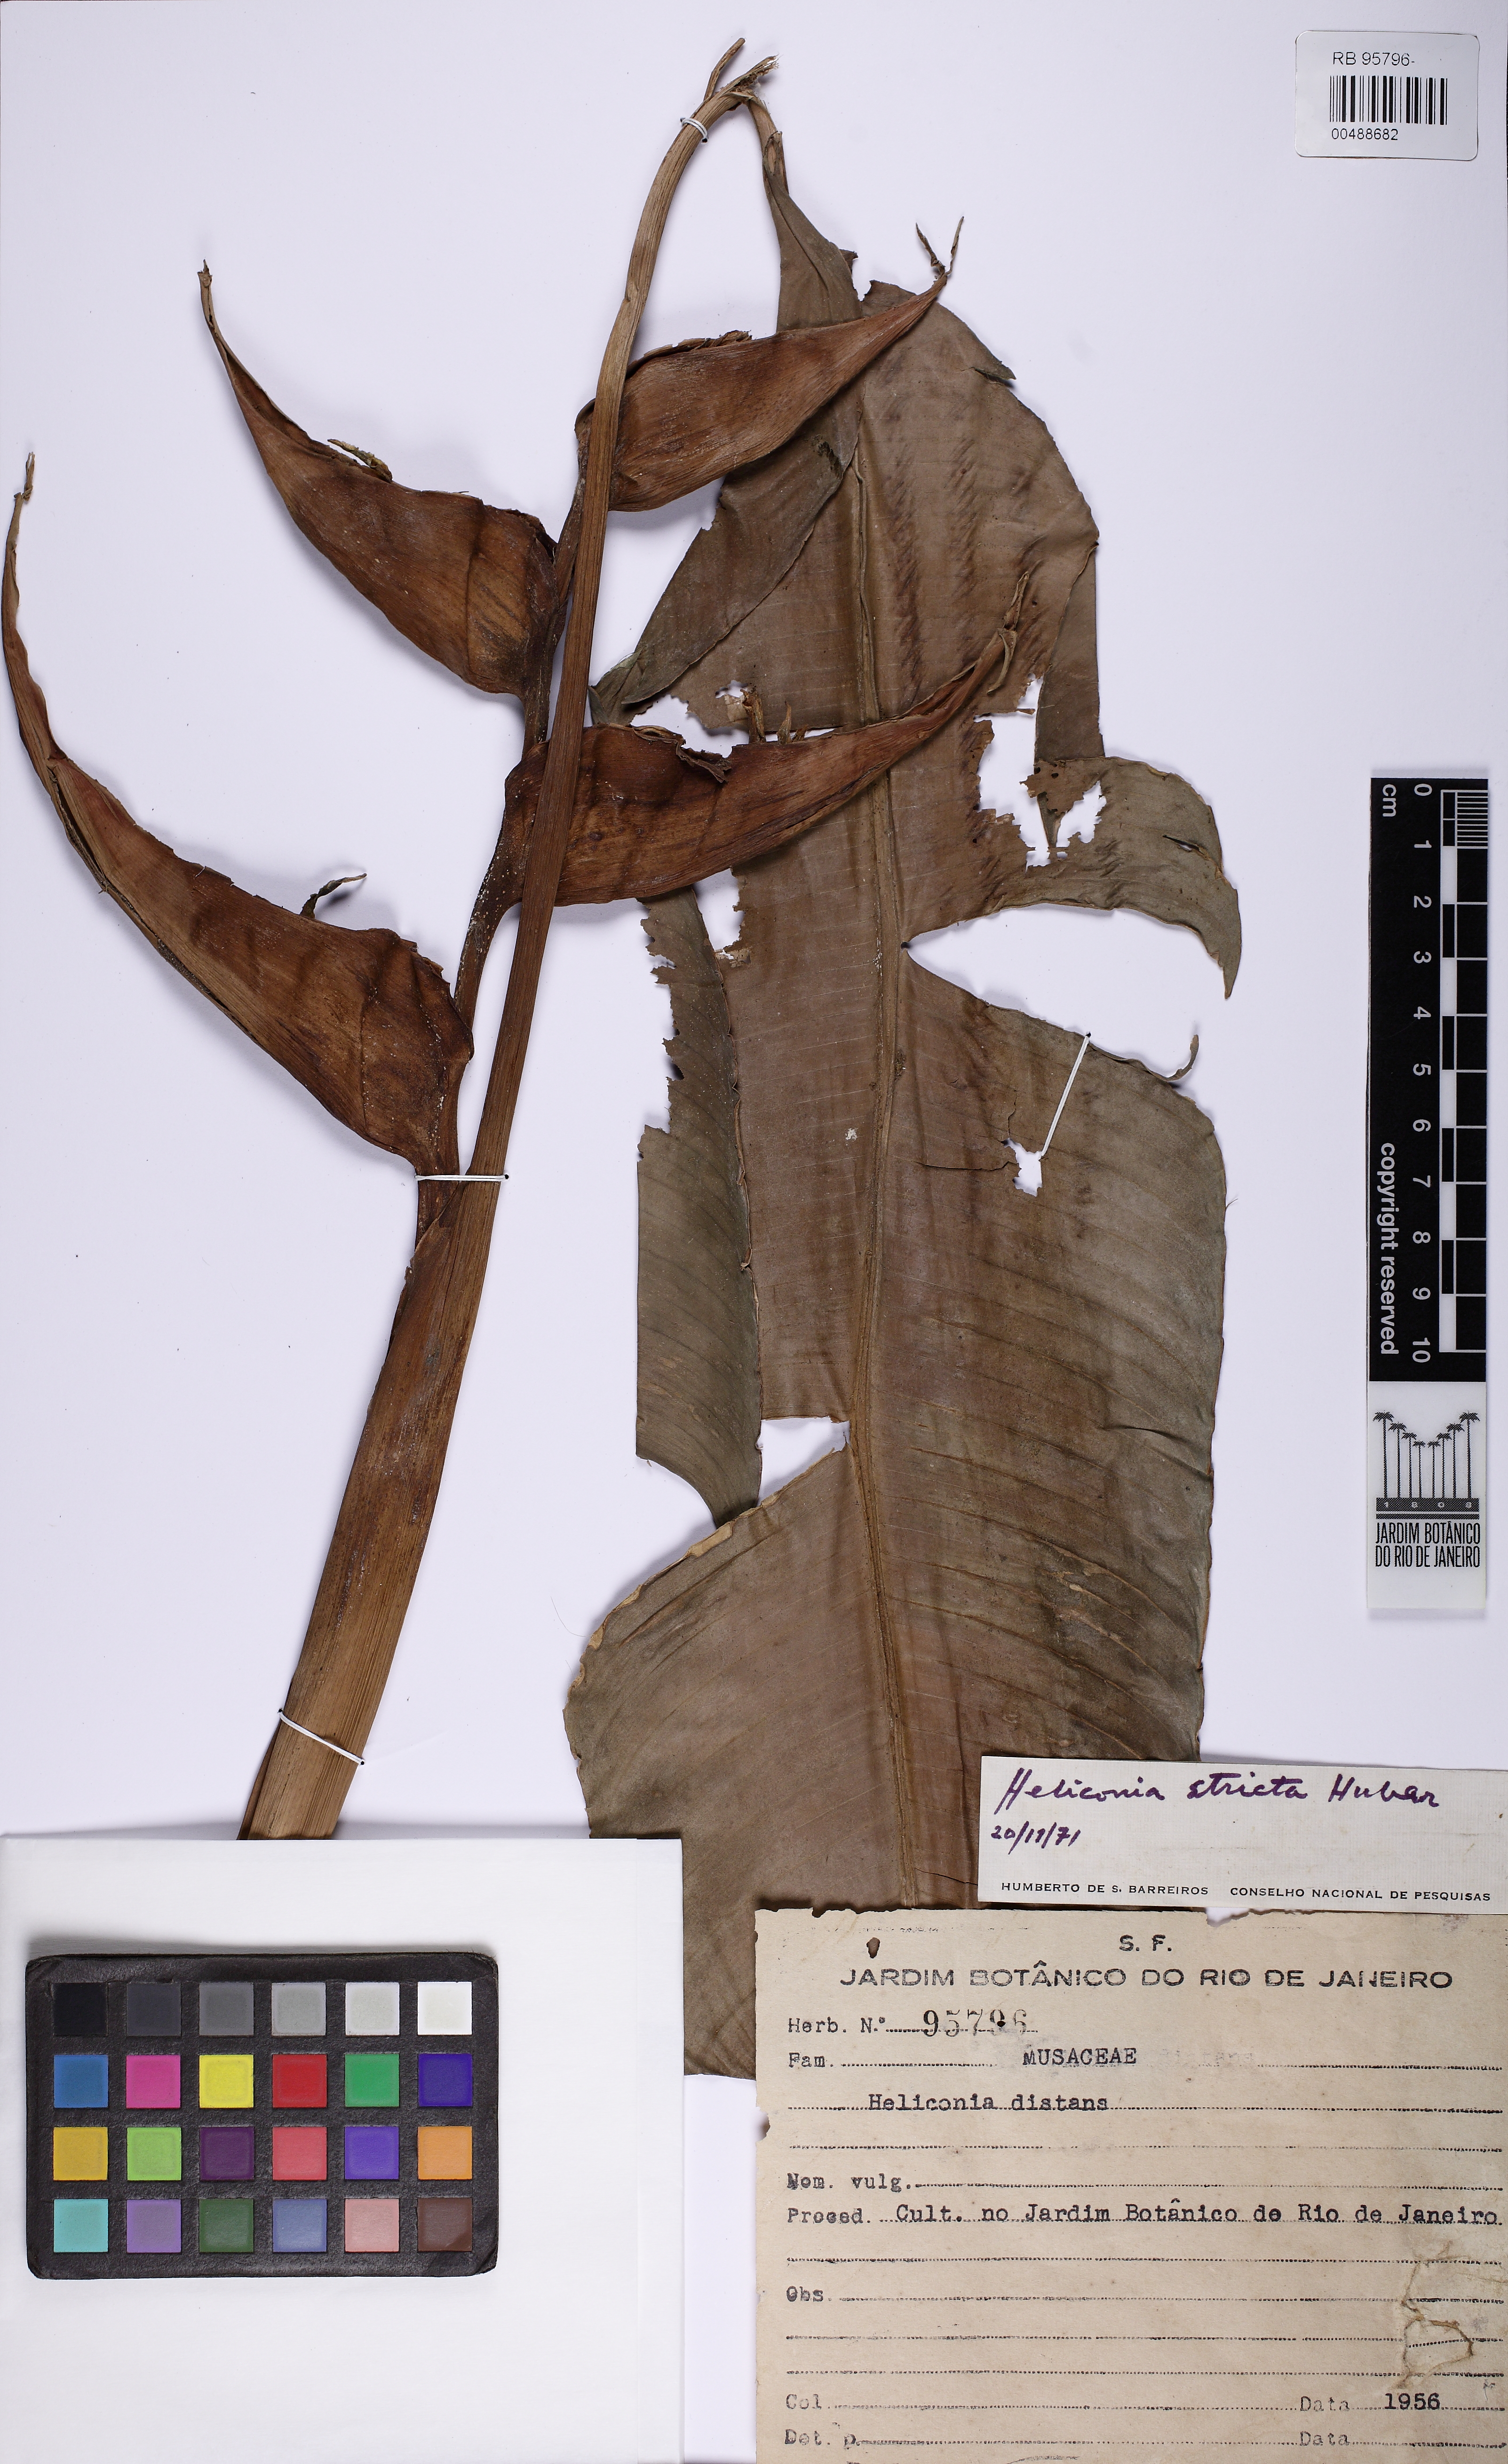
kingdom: Plantae
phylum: Tracheophyta
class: Liliopsida
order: Zingiberales
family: Heliconiaceae
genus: Heliconia
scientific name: Heliconia stricta
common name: Small lobster claw
